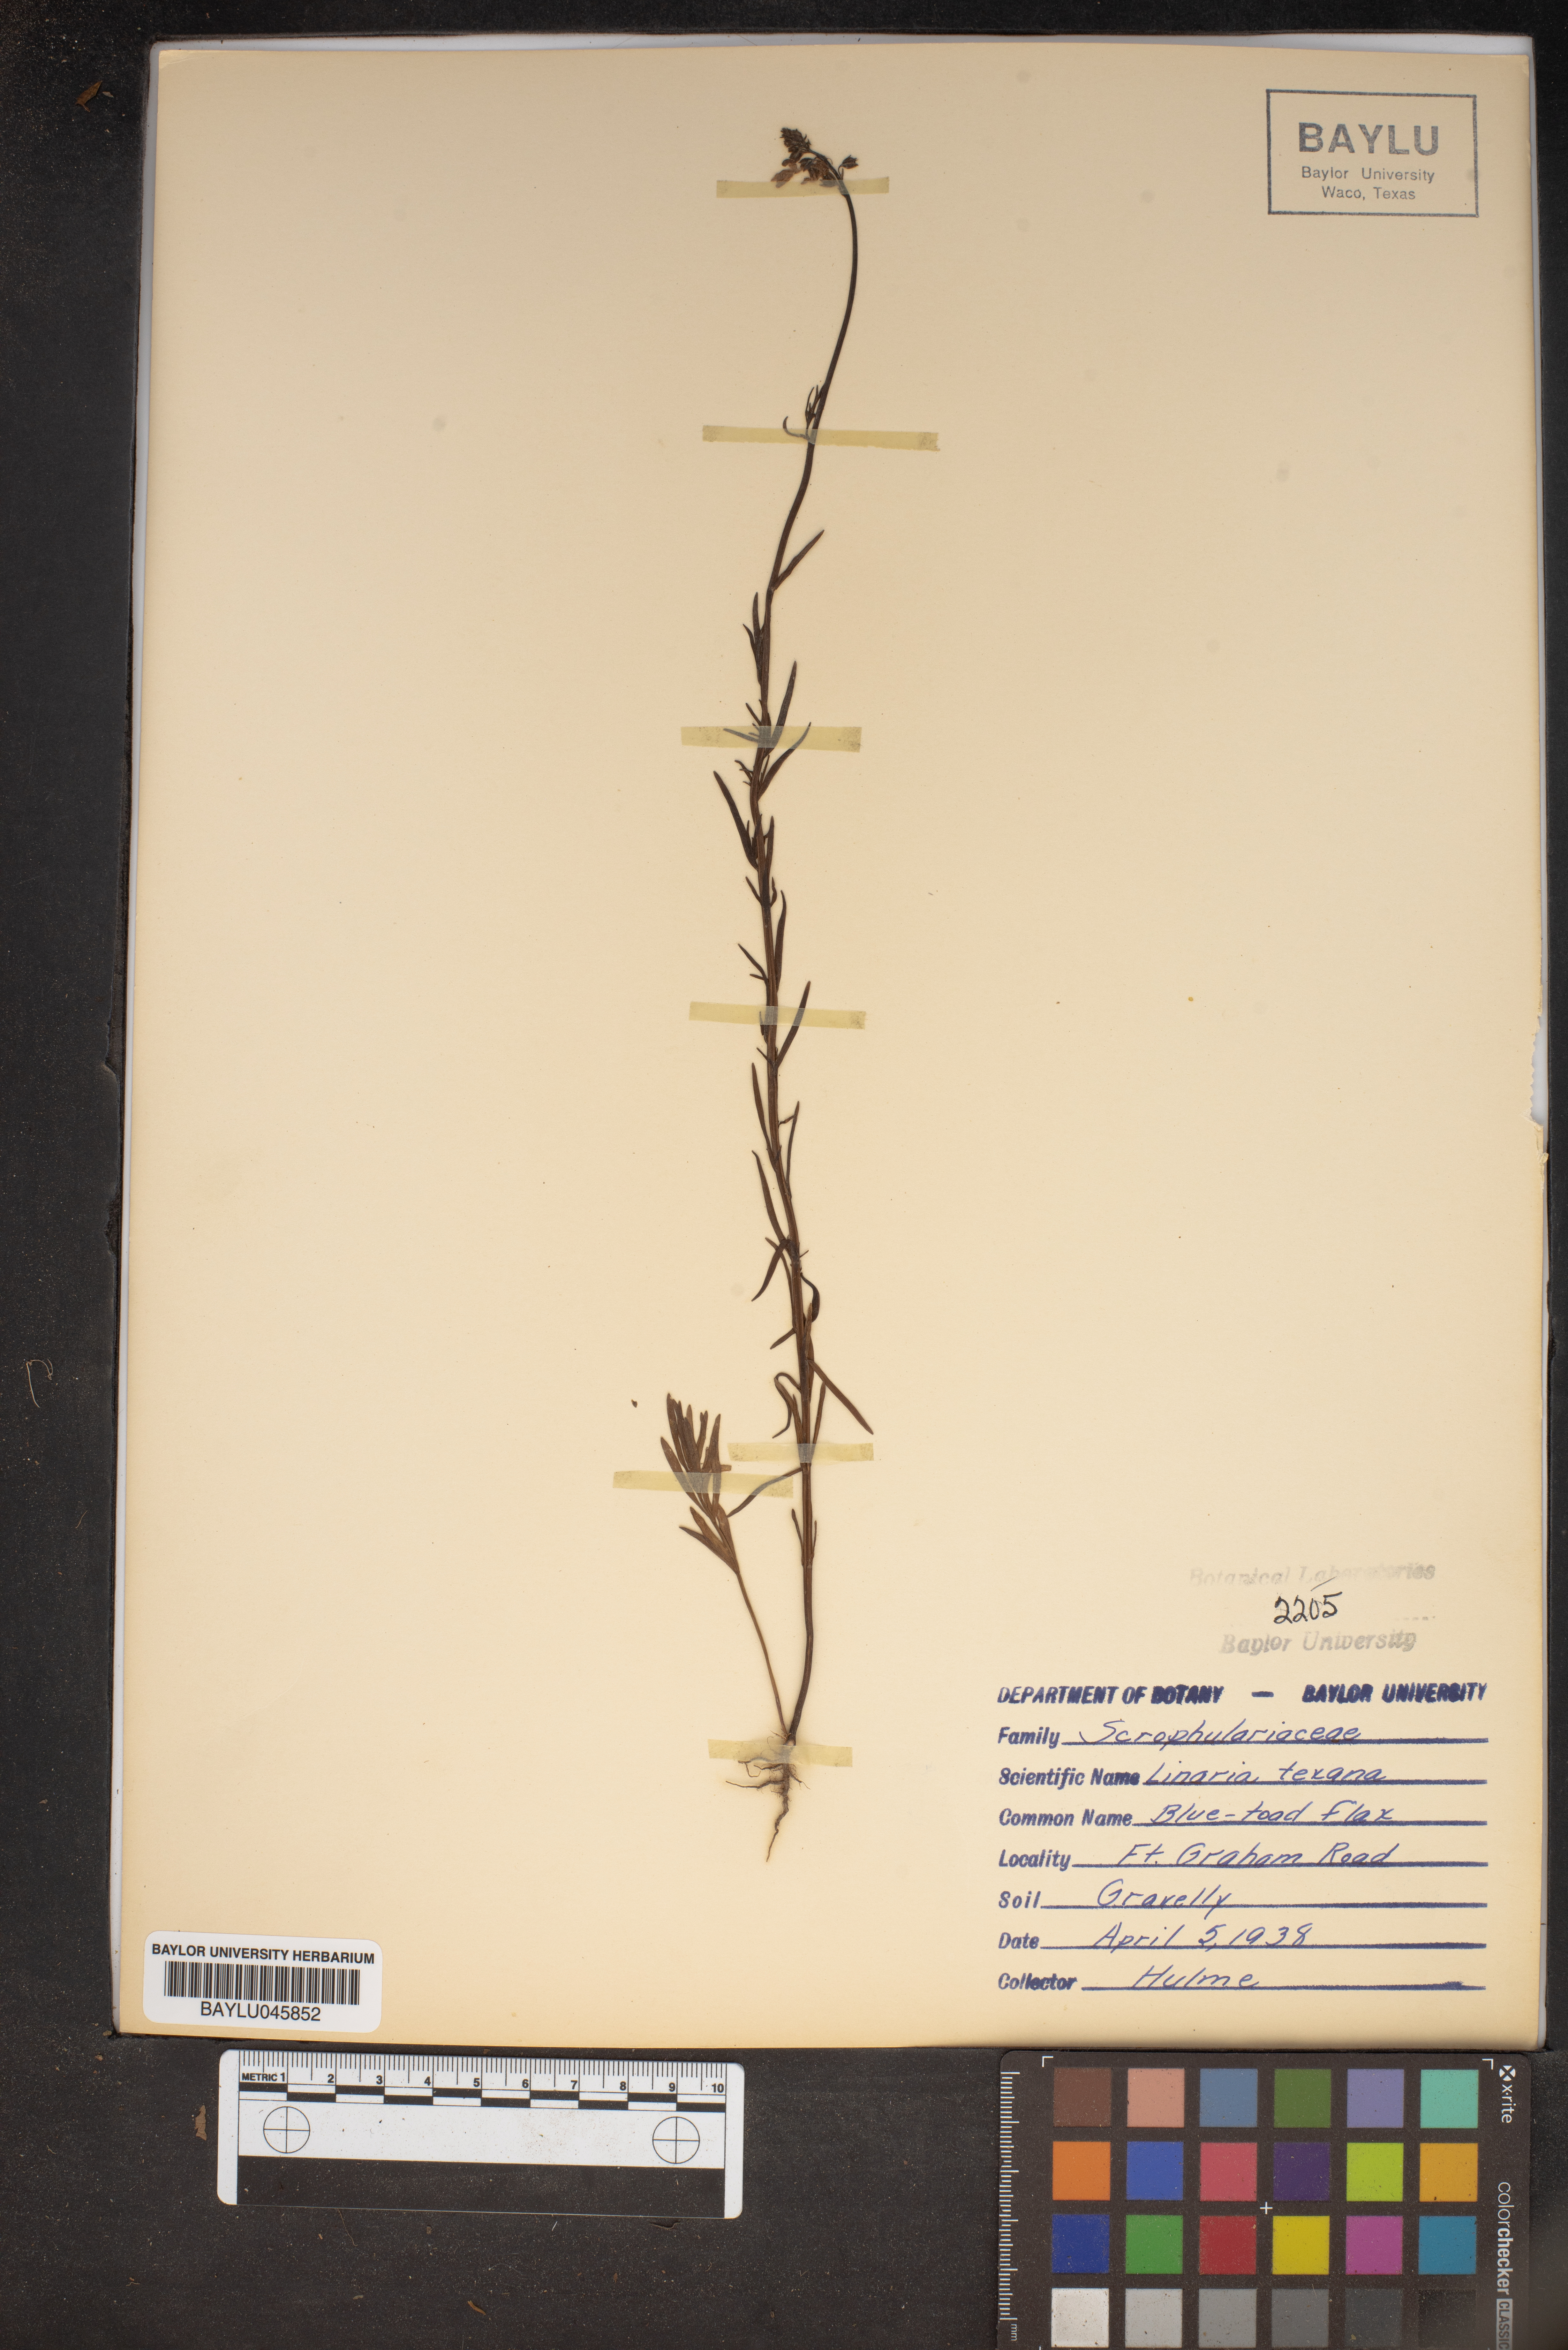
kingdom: Plantae
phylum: Tracheophyta
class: Magnoliopsida
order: Lamiales
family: Plantaginaceae
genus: Nuttallanthus
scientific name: Nuttallanthus texanus
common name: Texas toadflax
